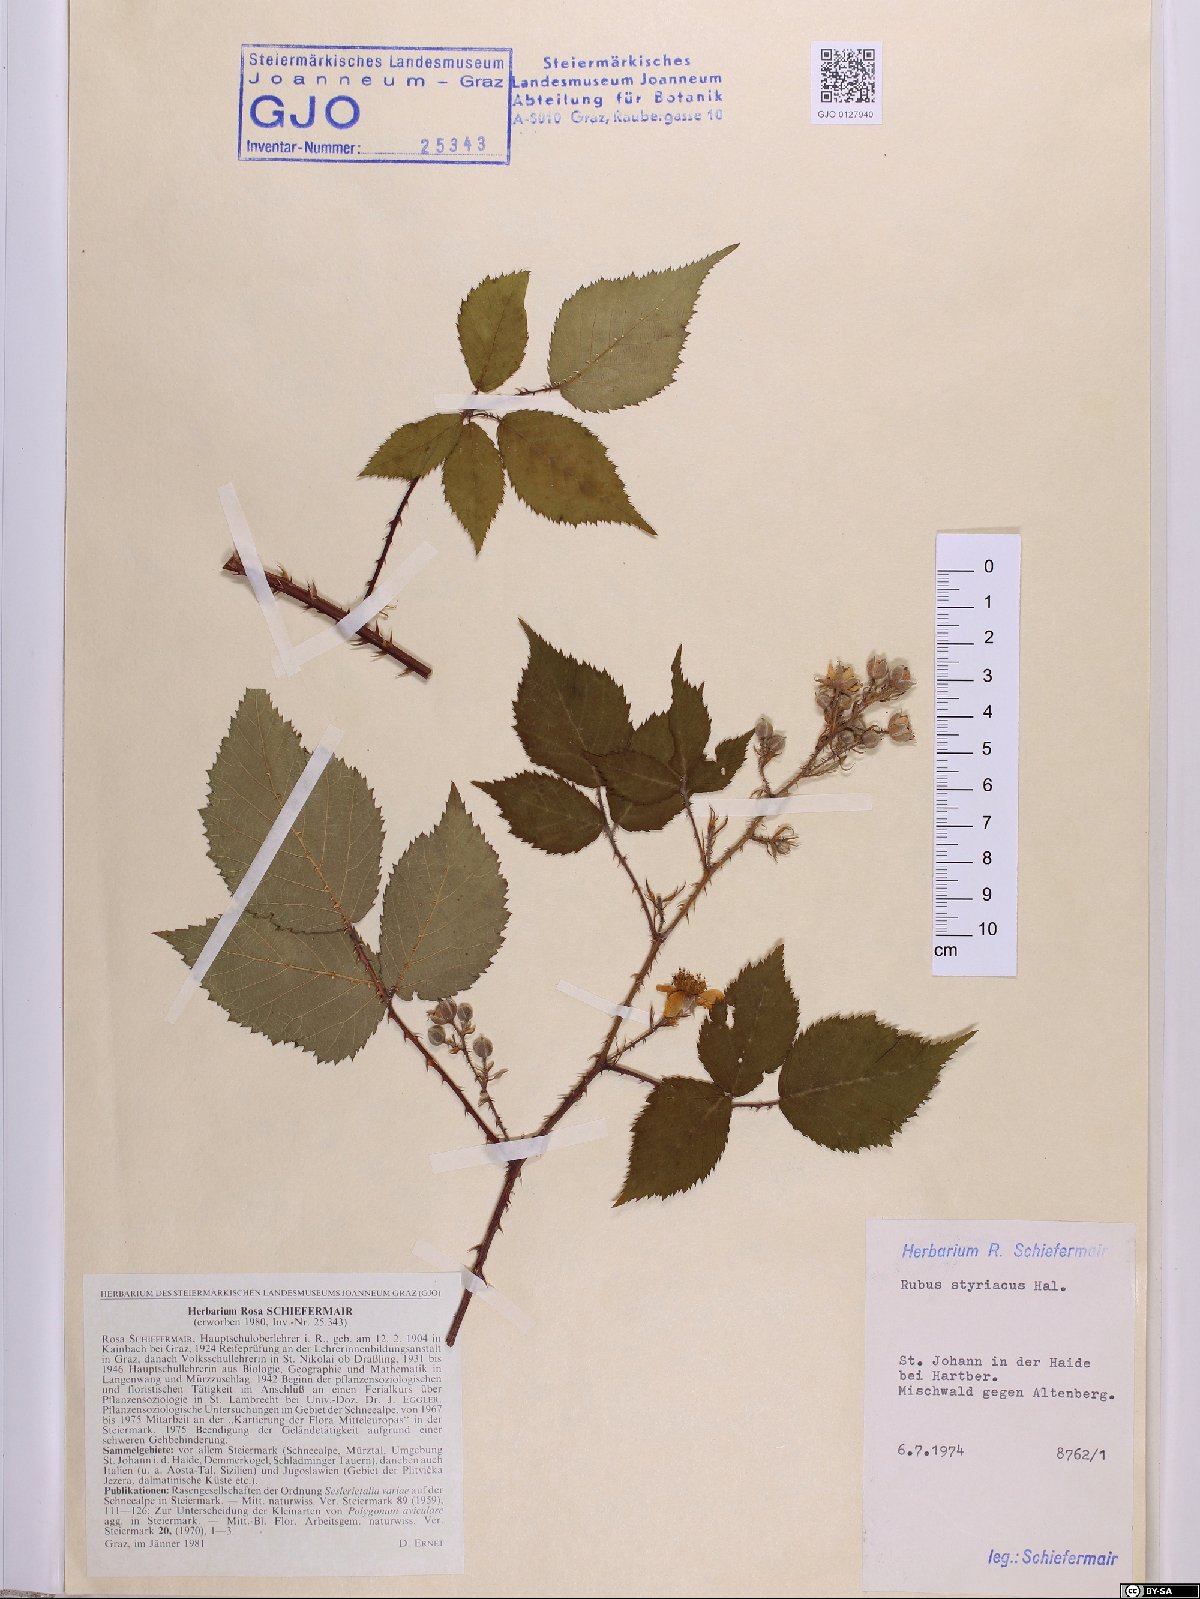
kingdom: Plantae
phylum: Tracheophyta
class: Magnoliopsida
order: Rosales
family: Rosaceae
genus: Rubus
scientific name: Rubus styriacus
